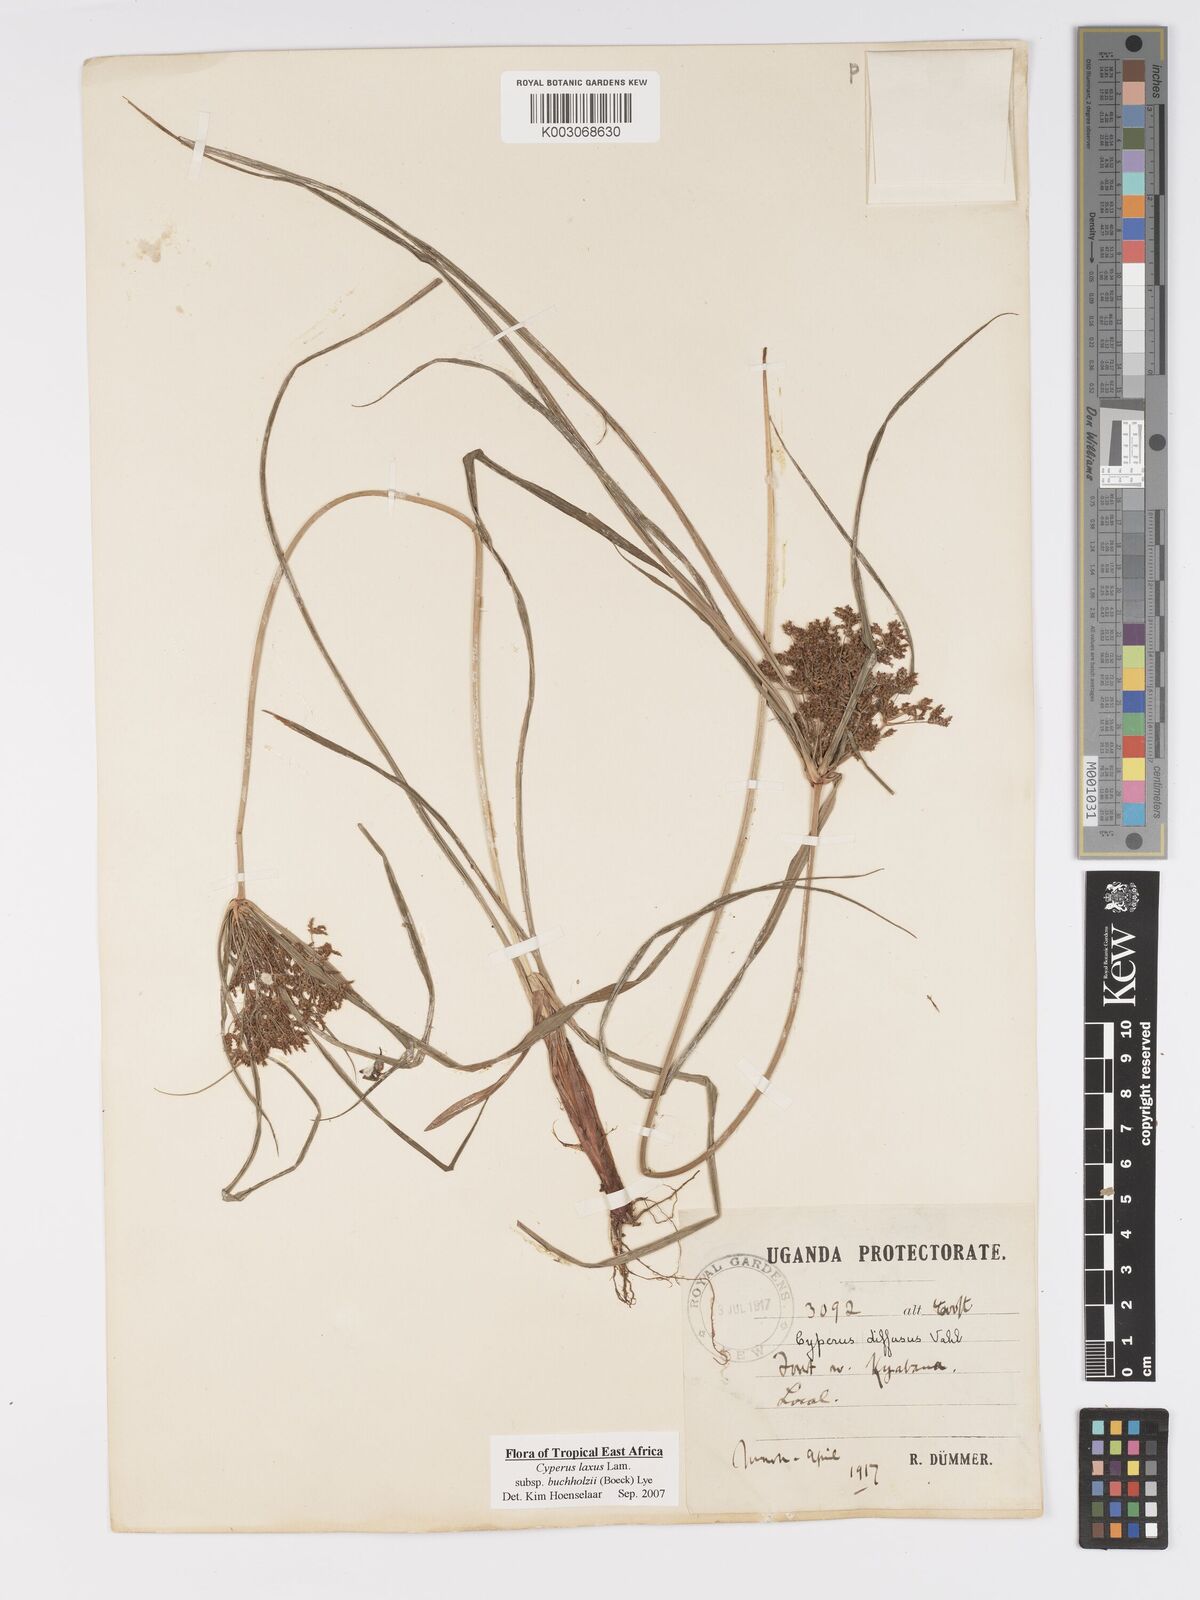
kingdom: Plantae
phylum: Tracheophyta
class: Liliopsida
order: Poales
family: Cyperaceae
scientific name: Cyperaceae
